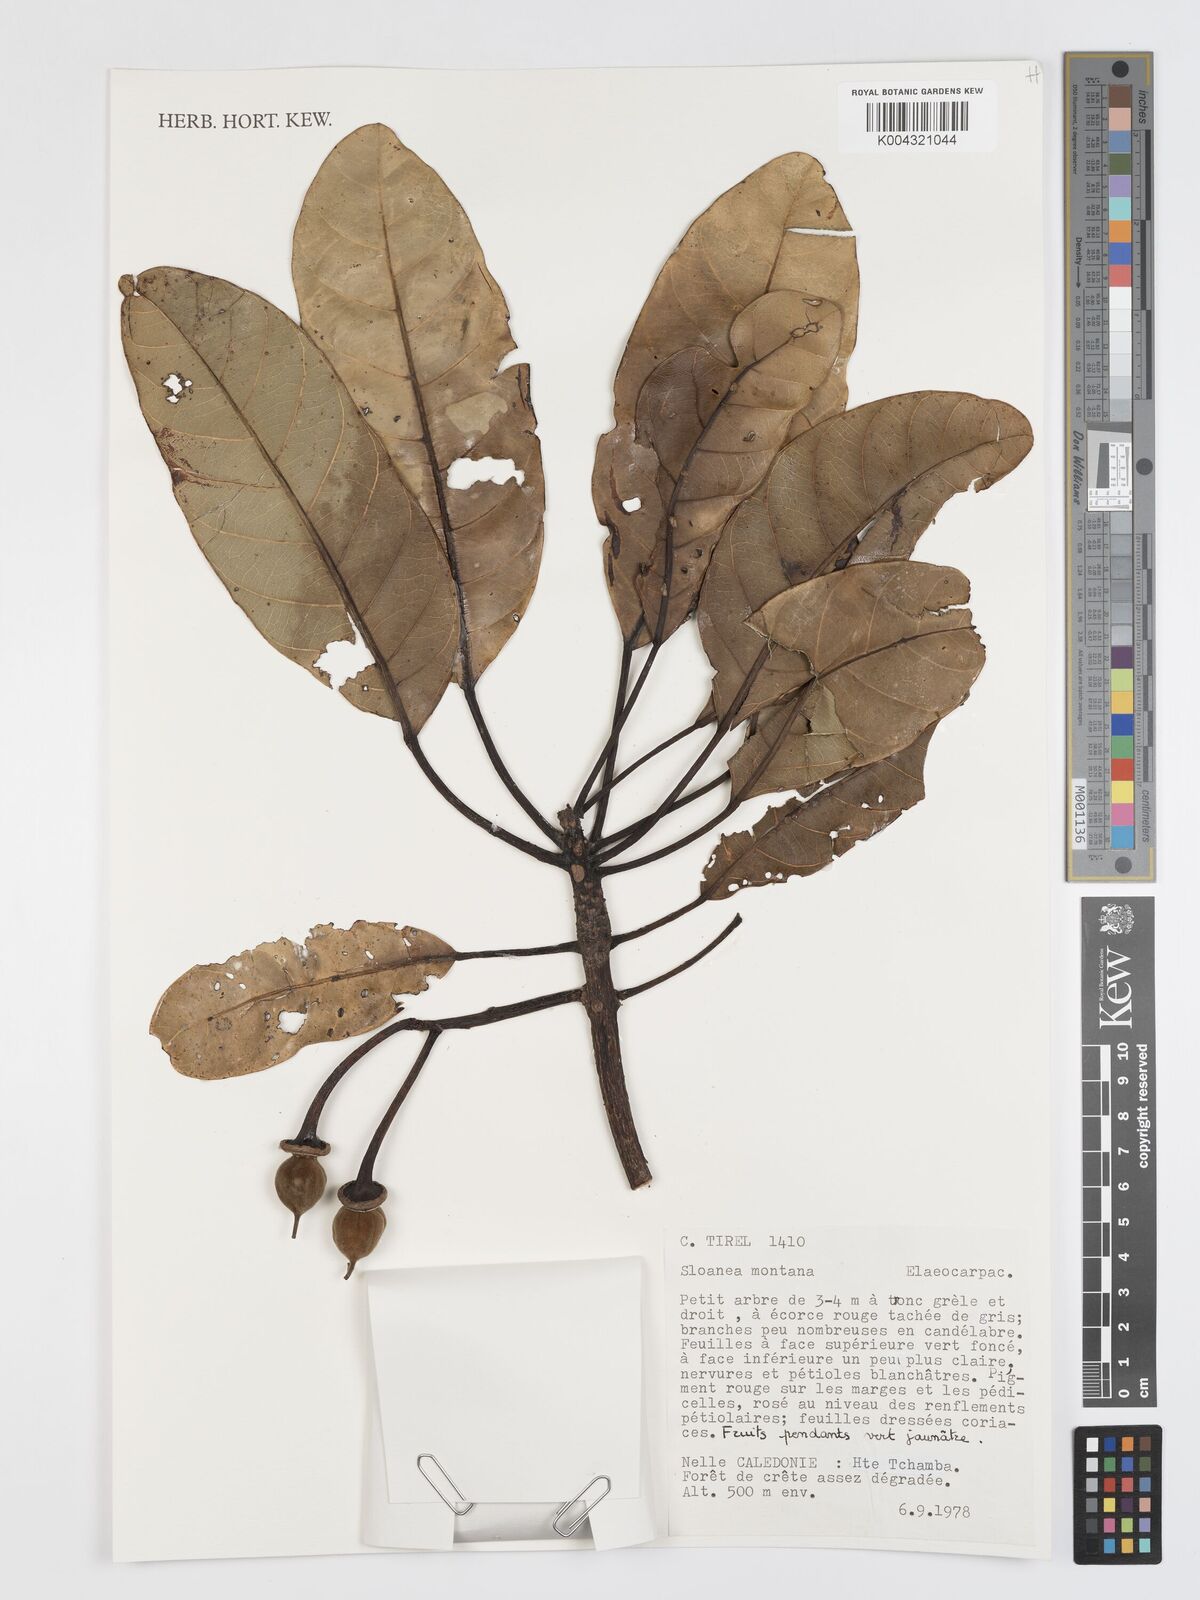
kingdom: Plantae
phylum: Tracheophyta
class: Magnoliopsida
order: Oxalidales
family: Elaeocarpaceae
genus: Sloanea
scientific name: Sloanea montana
